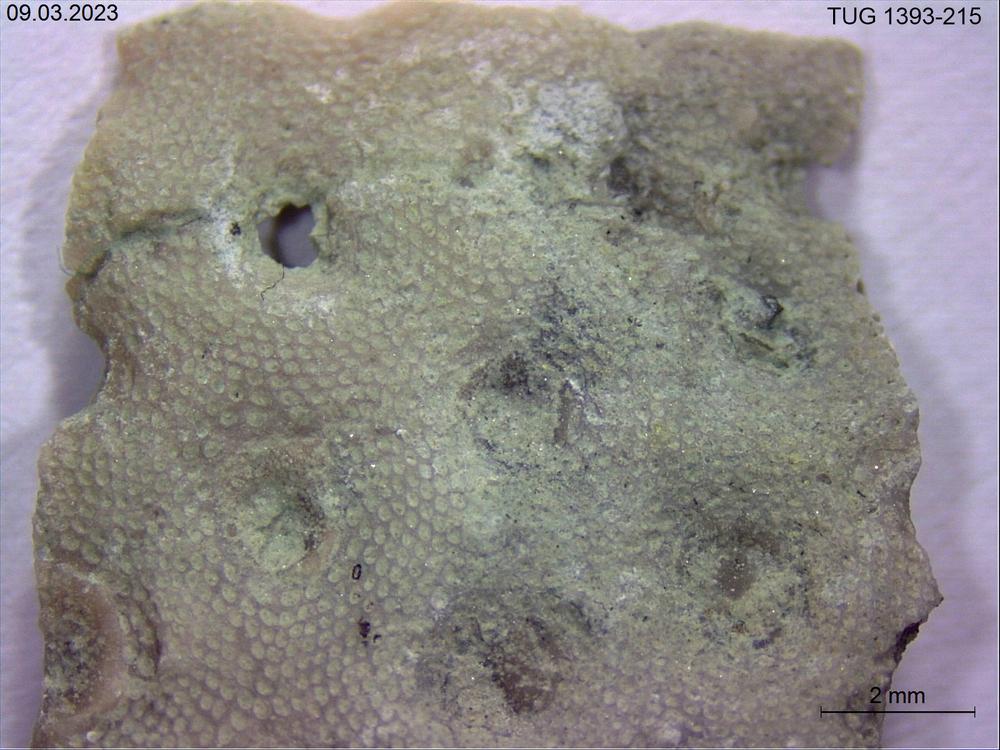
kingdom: Animalia
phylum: Bryozoa
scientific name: Bryozoa
